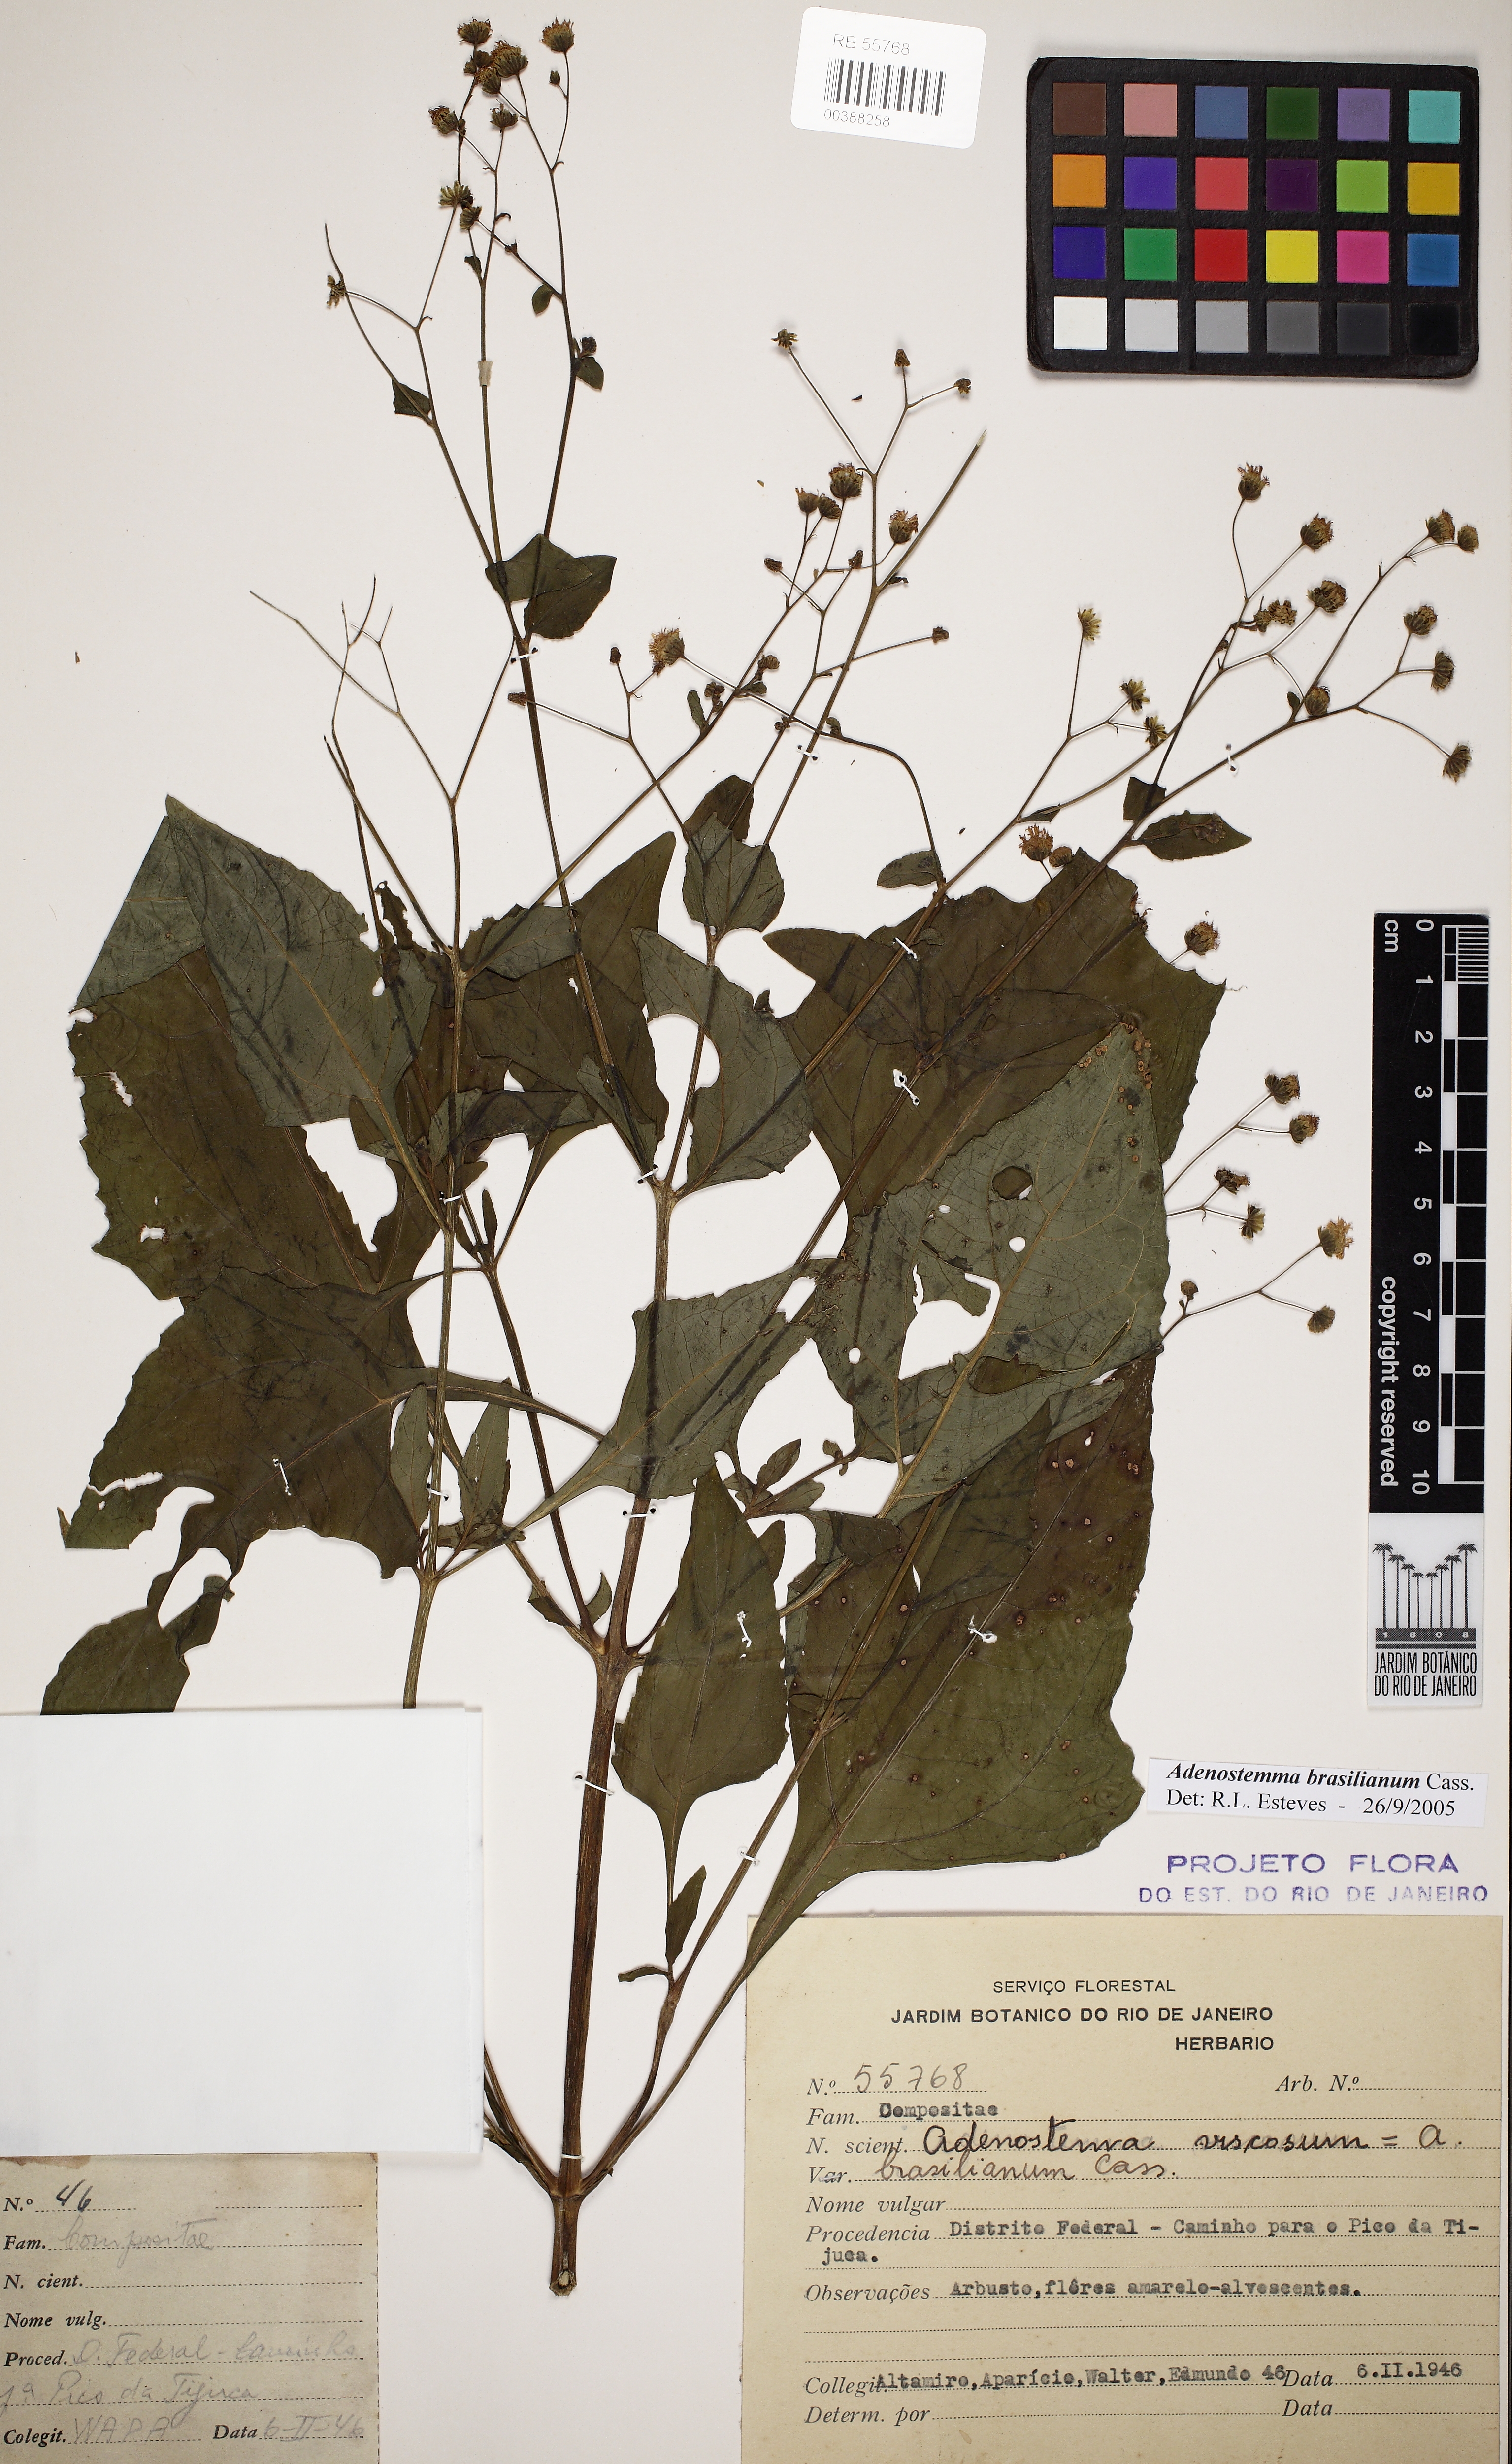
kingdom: Plantae
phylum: Tracheophyta
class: Magnoliopsida
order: Asterales
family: Asteraceae
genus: Adenostemma
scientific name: Adenostemma brasilianum
